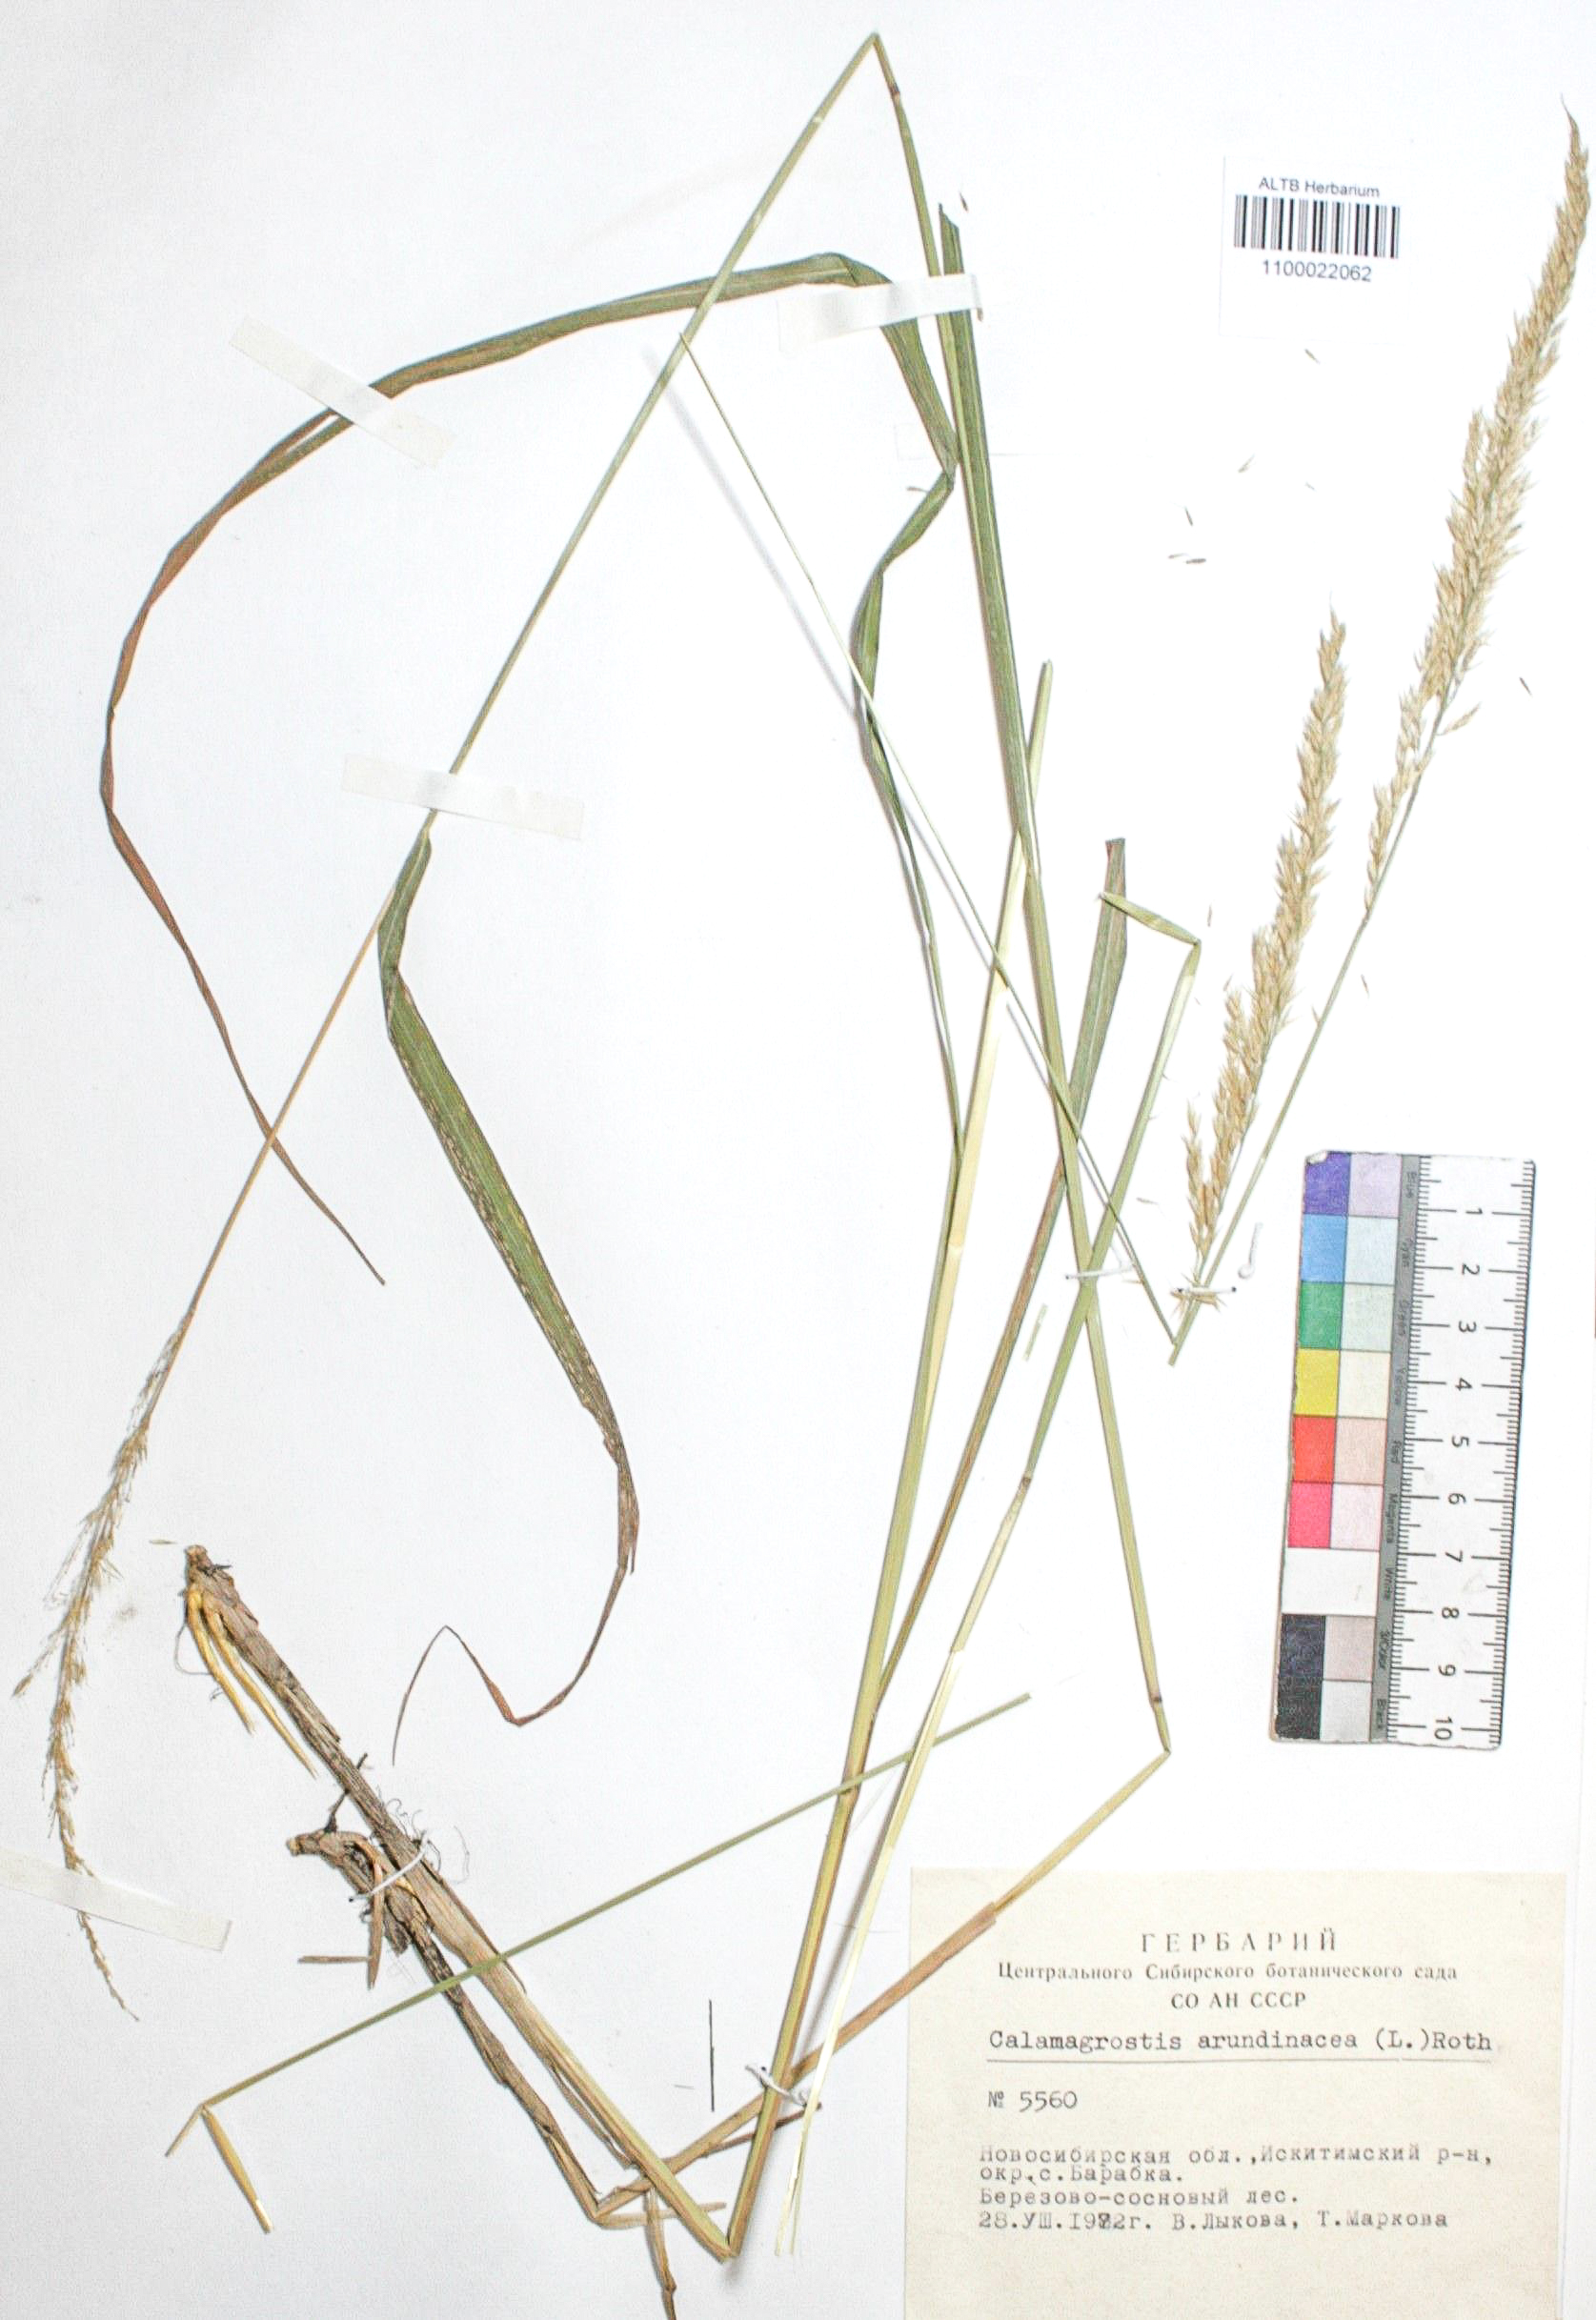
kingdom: Plantae
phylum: Tracheophyta
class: Liliopsida
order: Poales
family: Poaceae
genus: Calamagrostis
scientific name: Calamagrostis arundinacea
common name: Metskastik
